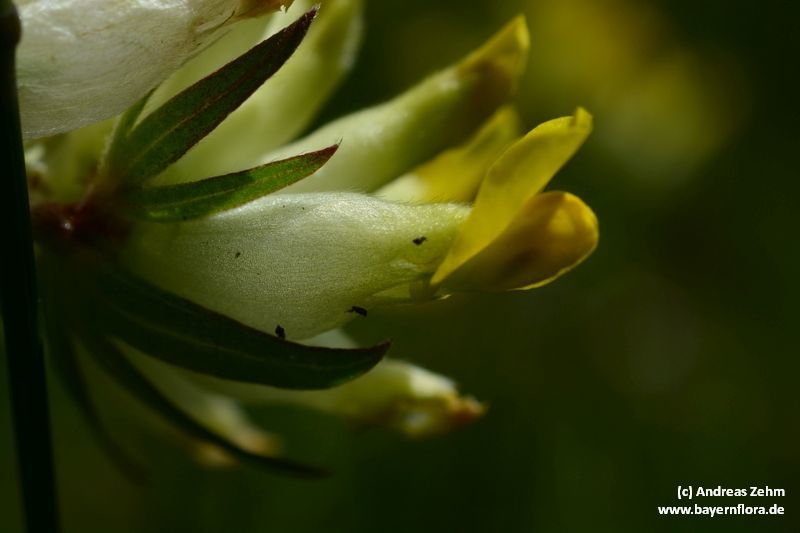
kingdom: Plantae
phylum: Tracheophyta
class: Magnoliopsida
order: Fabales
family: Fabaceae
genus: Anthyllis
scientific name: Anthyllis vulneraria
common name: Kidney vetch
